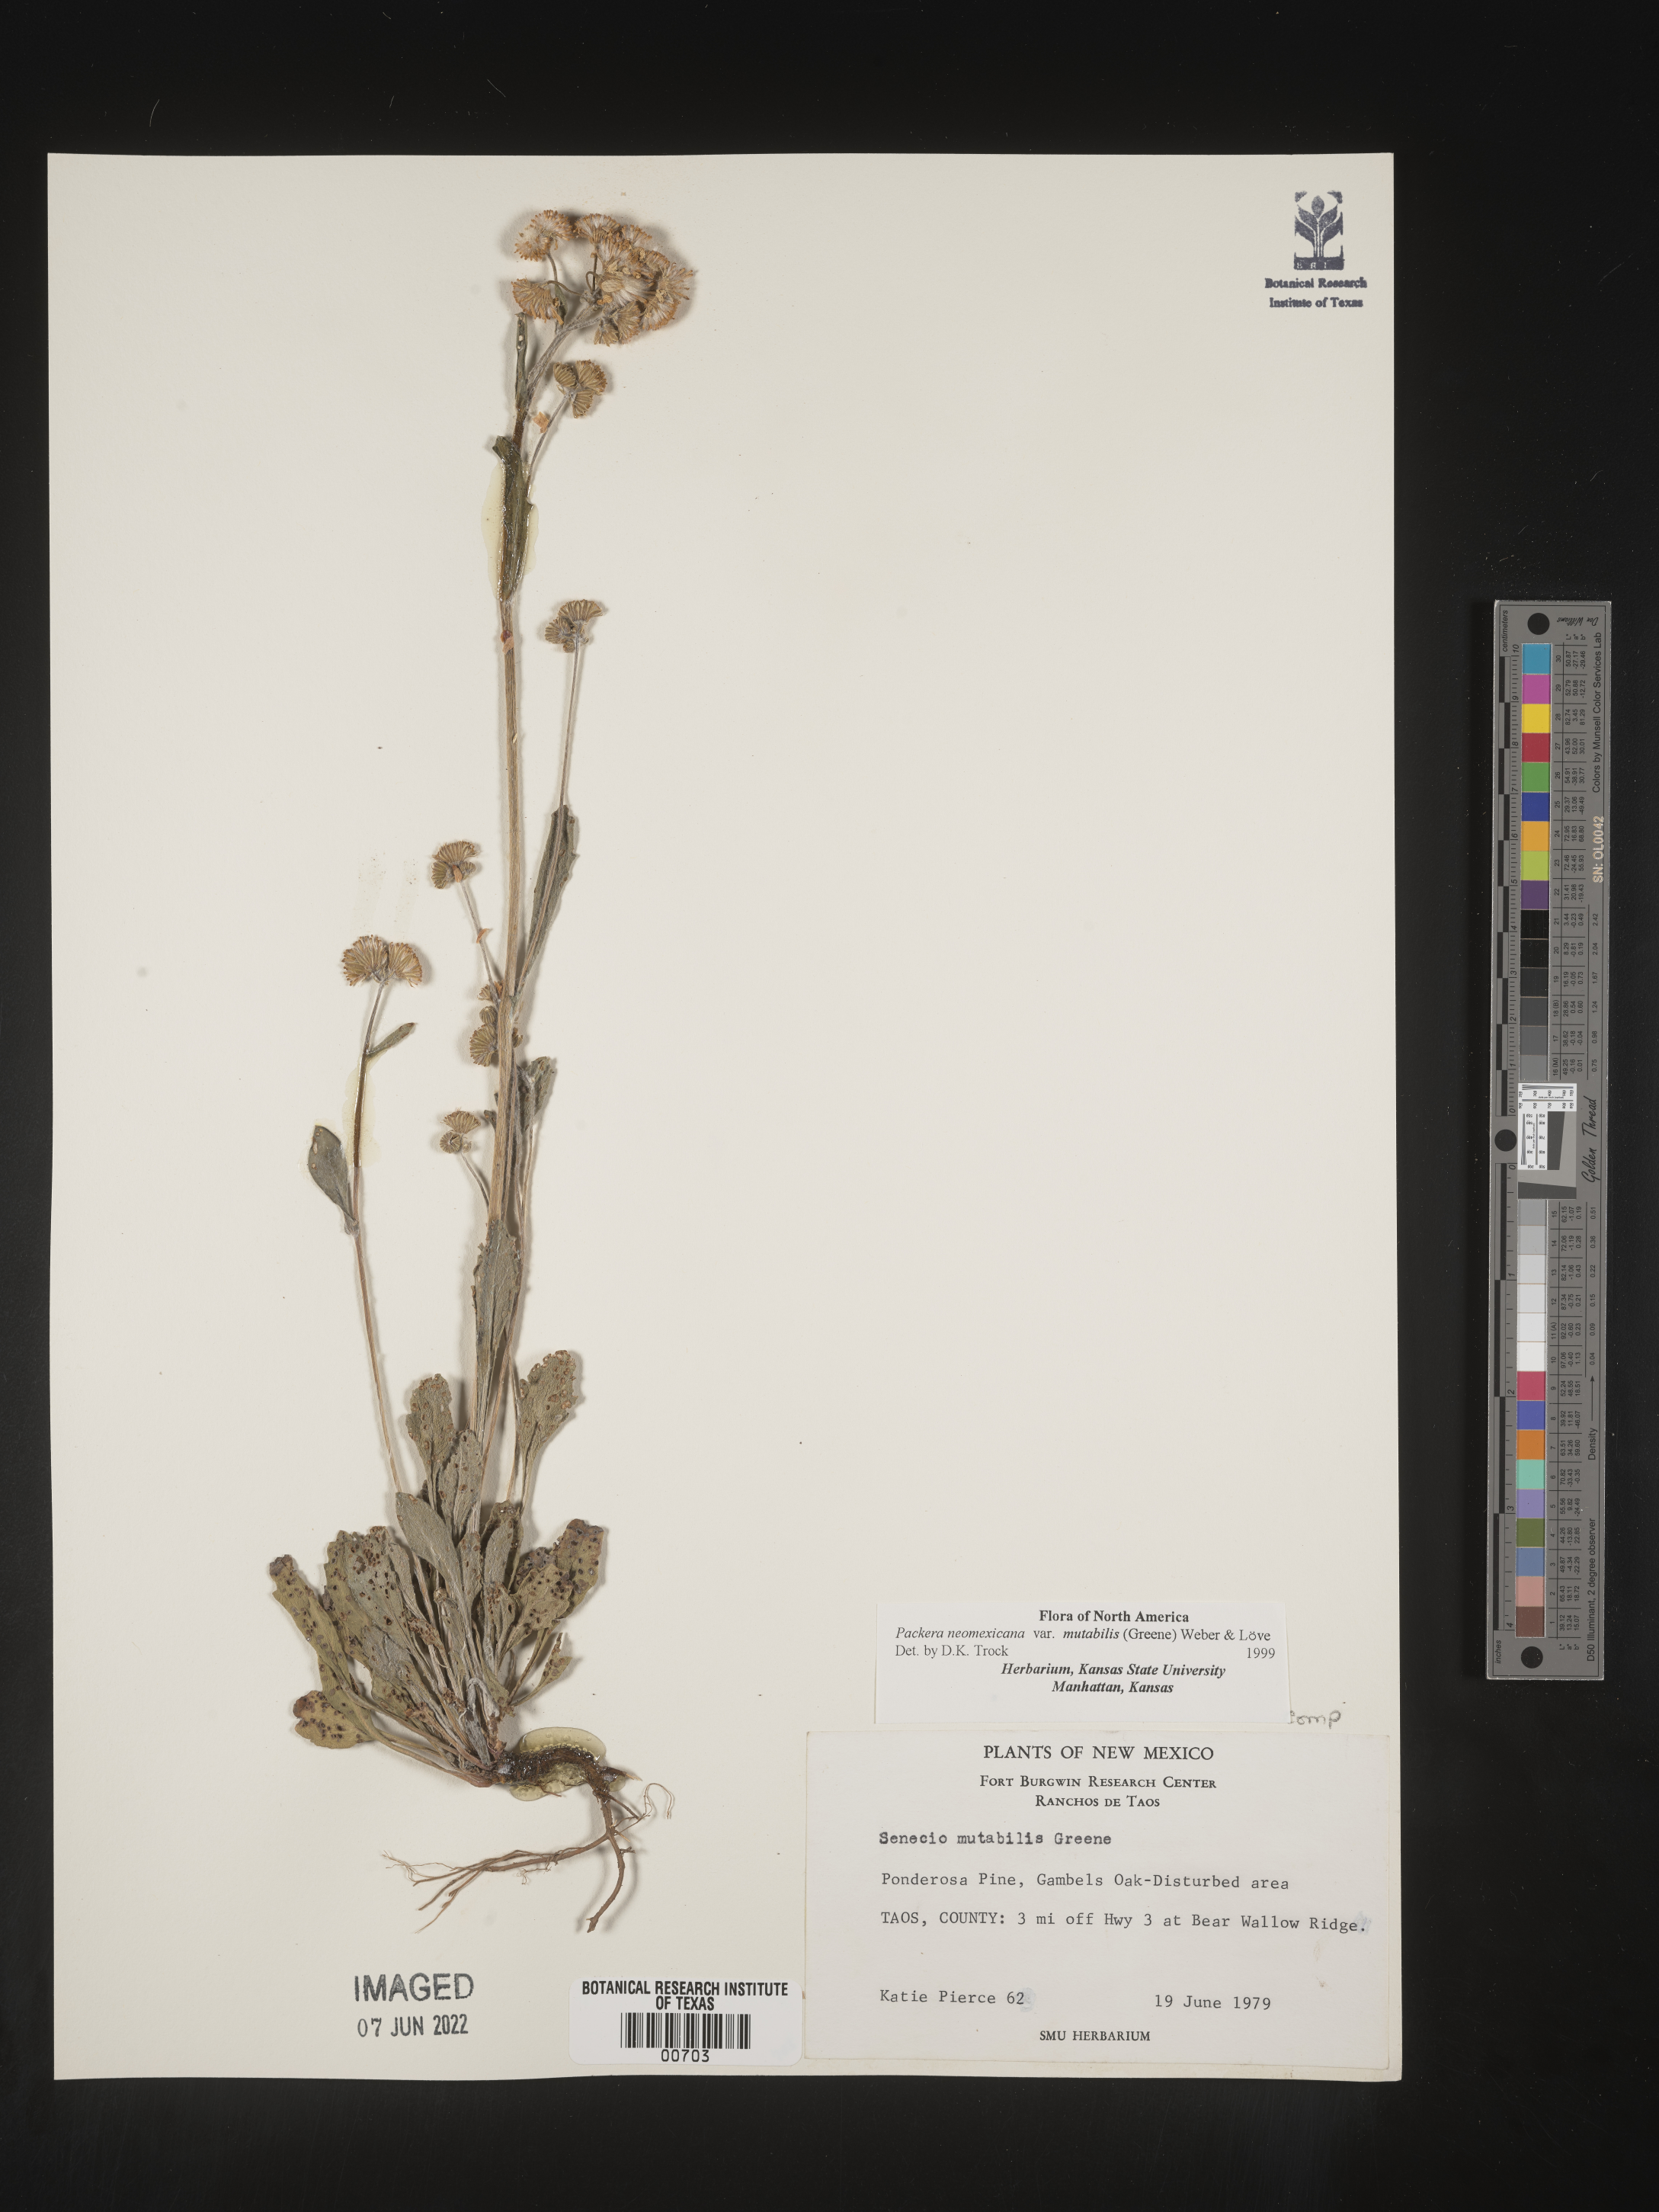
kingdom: Plantae
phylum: Tracheophyta
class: Magnoliopsida
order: Asterales
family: Asteraceae
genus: Packera
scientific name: Packera neomexicana
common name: New mexico butterweed
